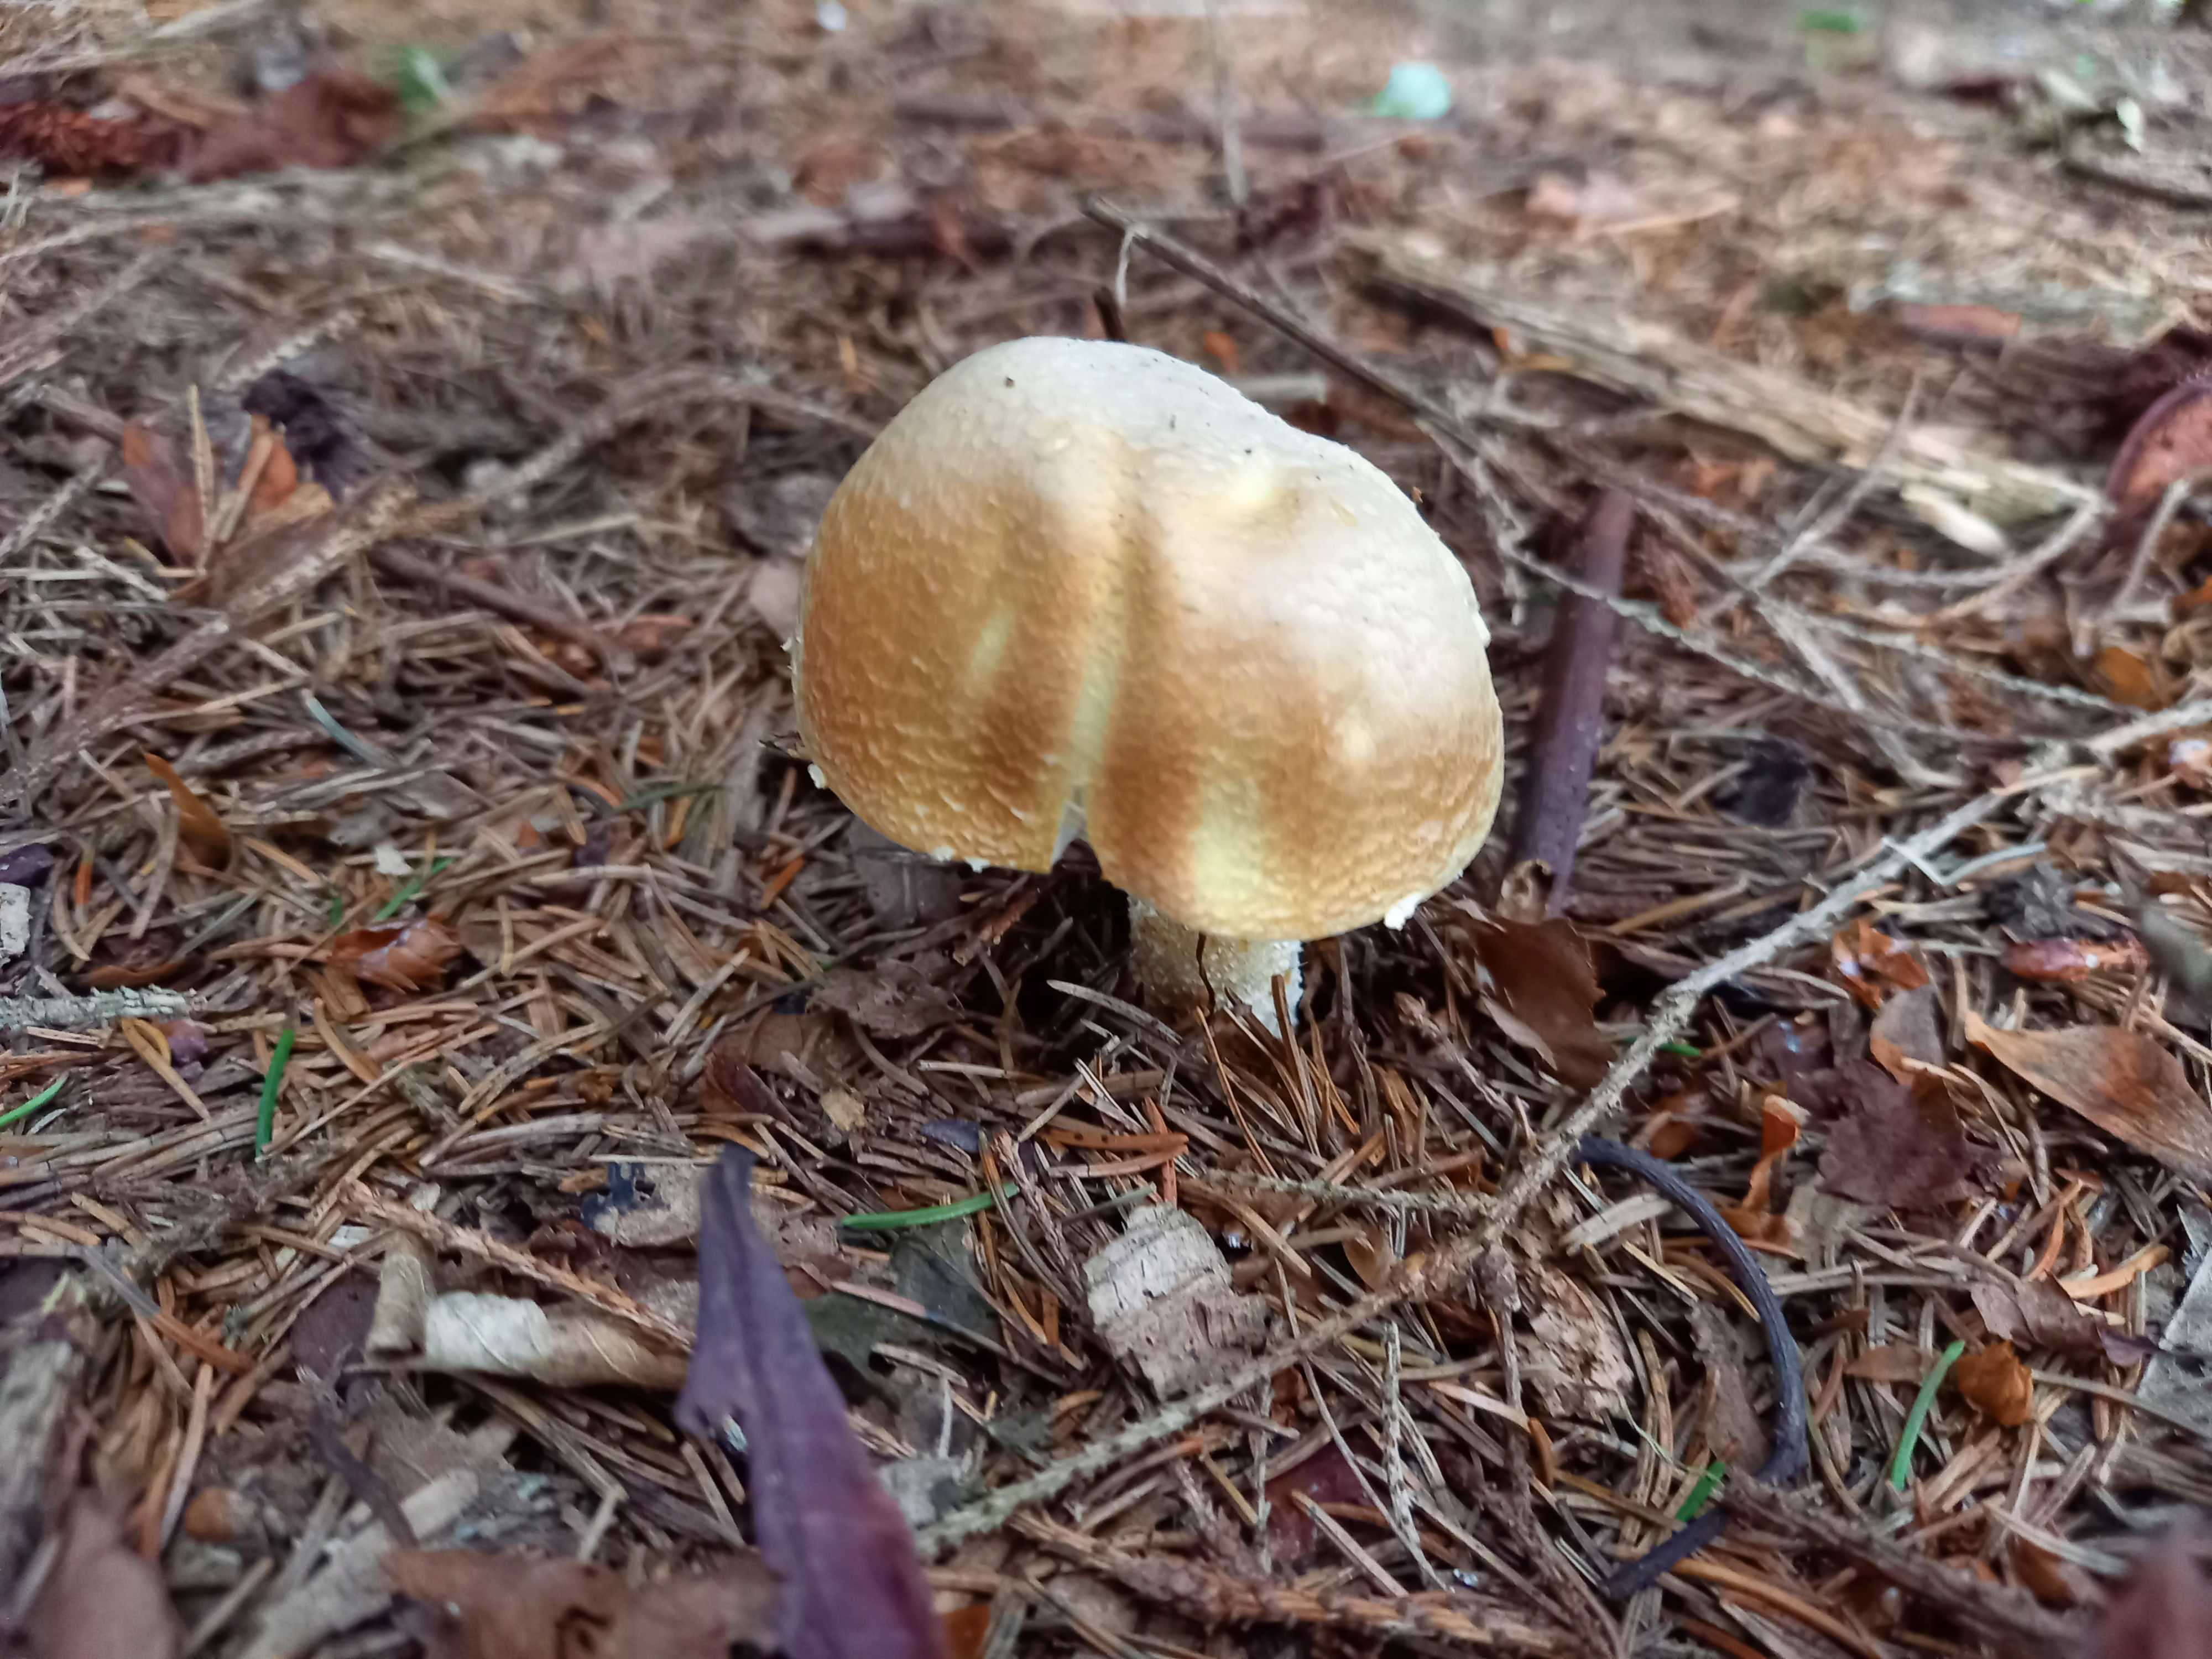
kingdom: Fungi
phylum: Basidiomycota
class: Agaricomycetes
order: Agaricales
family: Agaricaceae
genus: Agaricus
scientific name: Agaricus augustus
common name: prægtig champignon
